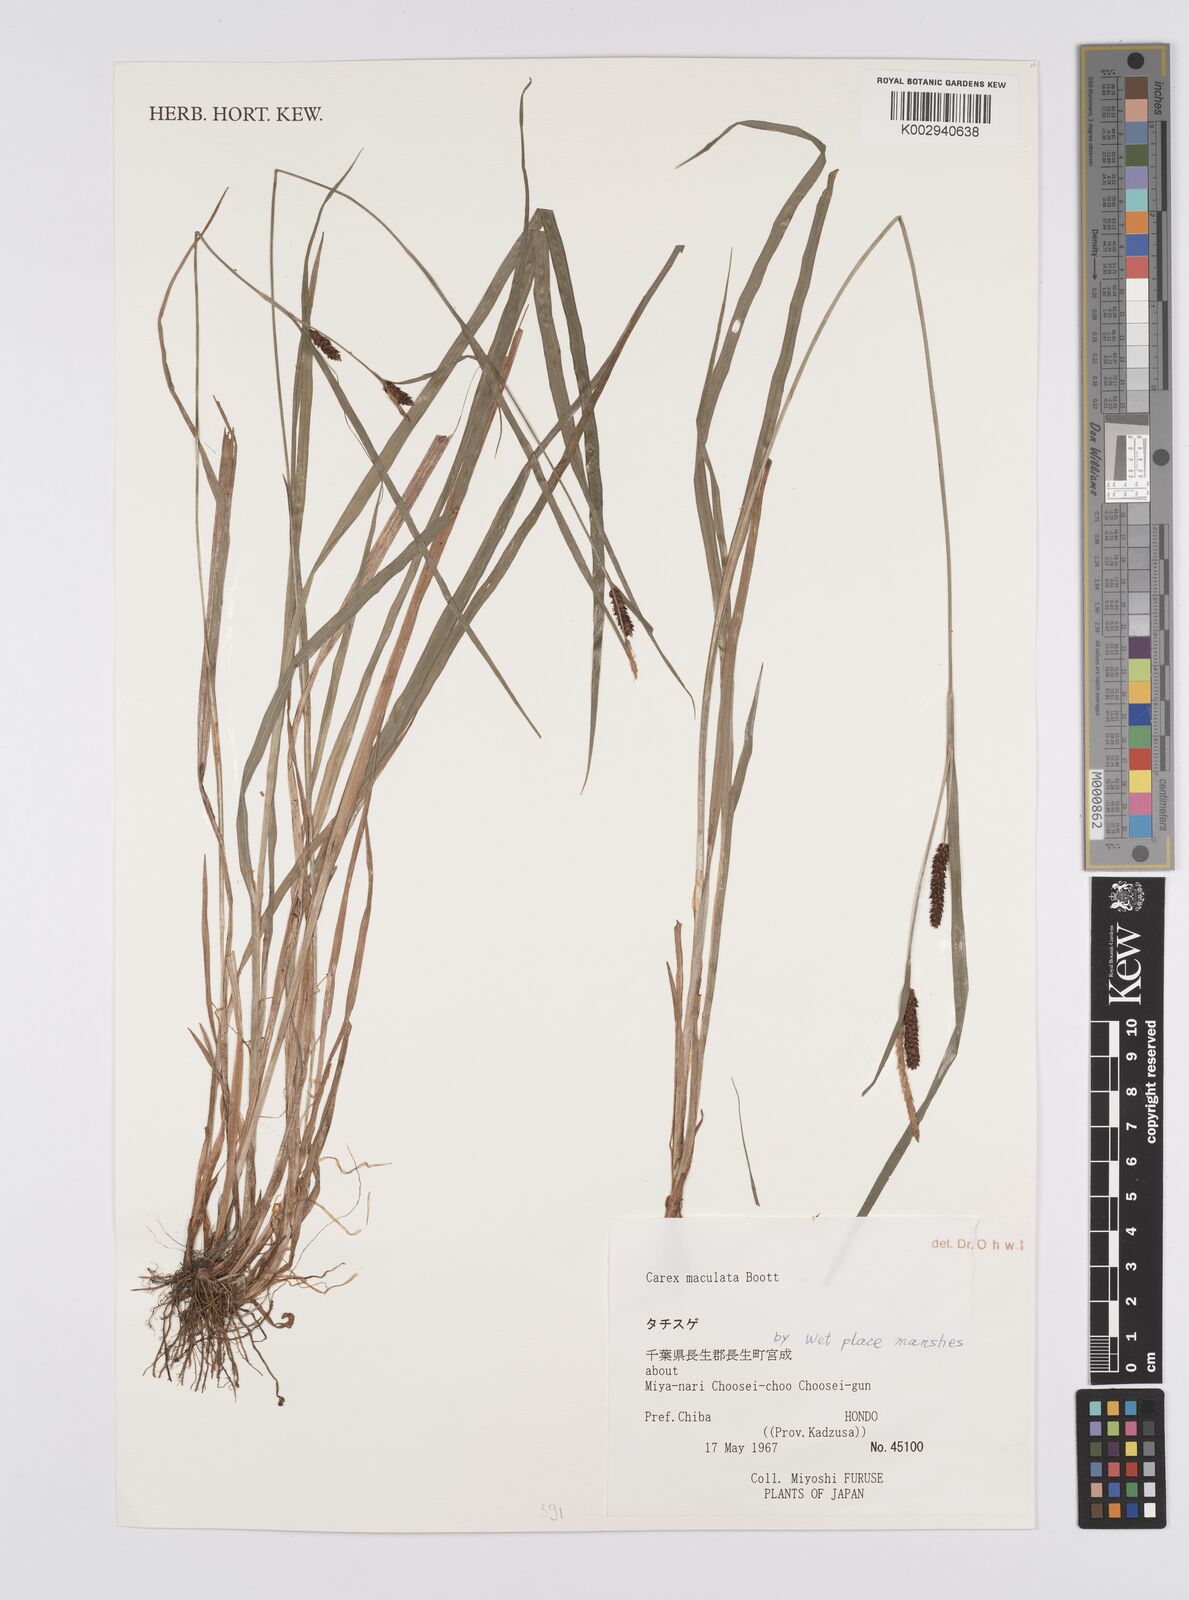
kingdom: Plantae
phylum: Tracheophyta
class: Liliopsida
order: Poales
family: Cyperaceae
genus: Carex
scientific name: Carex maculata
